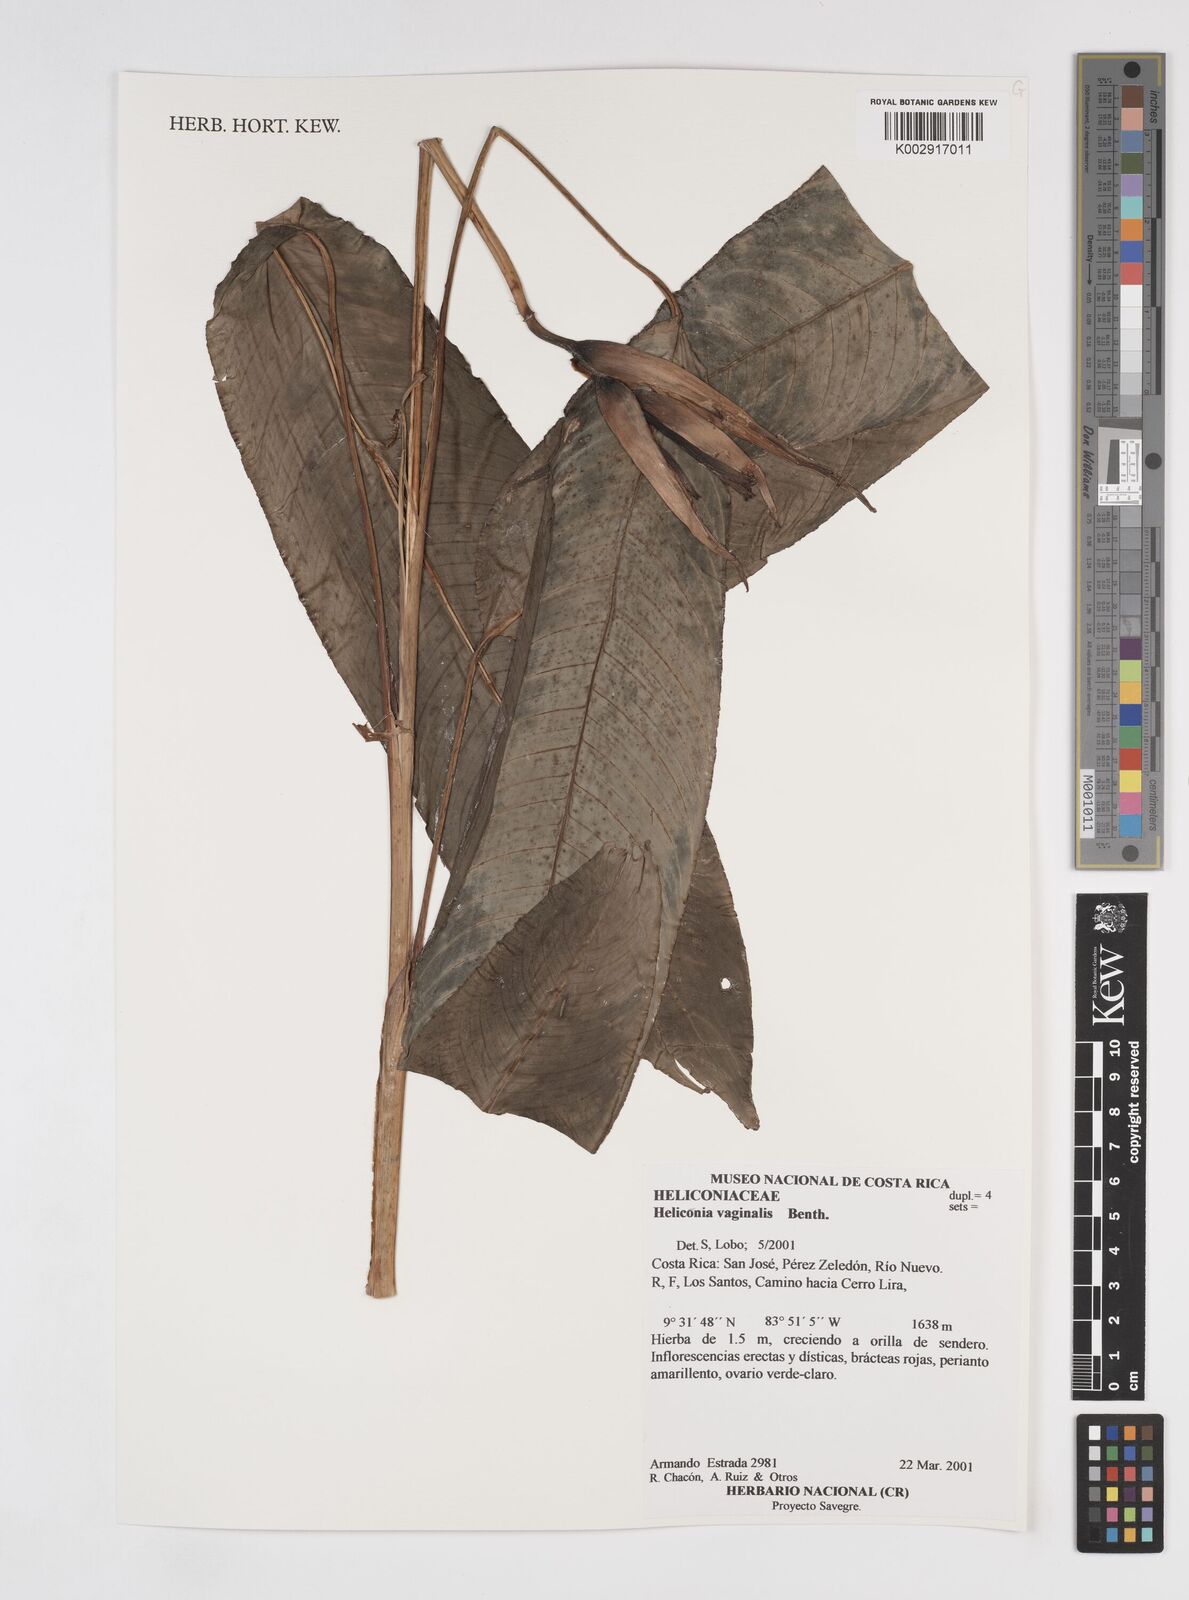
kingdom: Plantae
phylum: Tracheophyta
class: Liliopsida
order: Zingiberales
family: Heliconiaceae
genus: Heliconia
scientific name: Heliconia vaginalis
